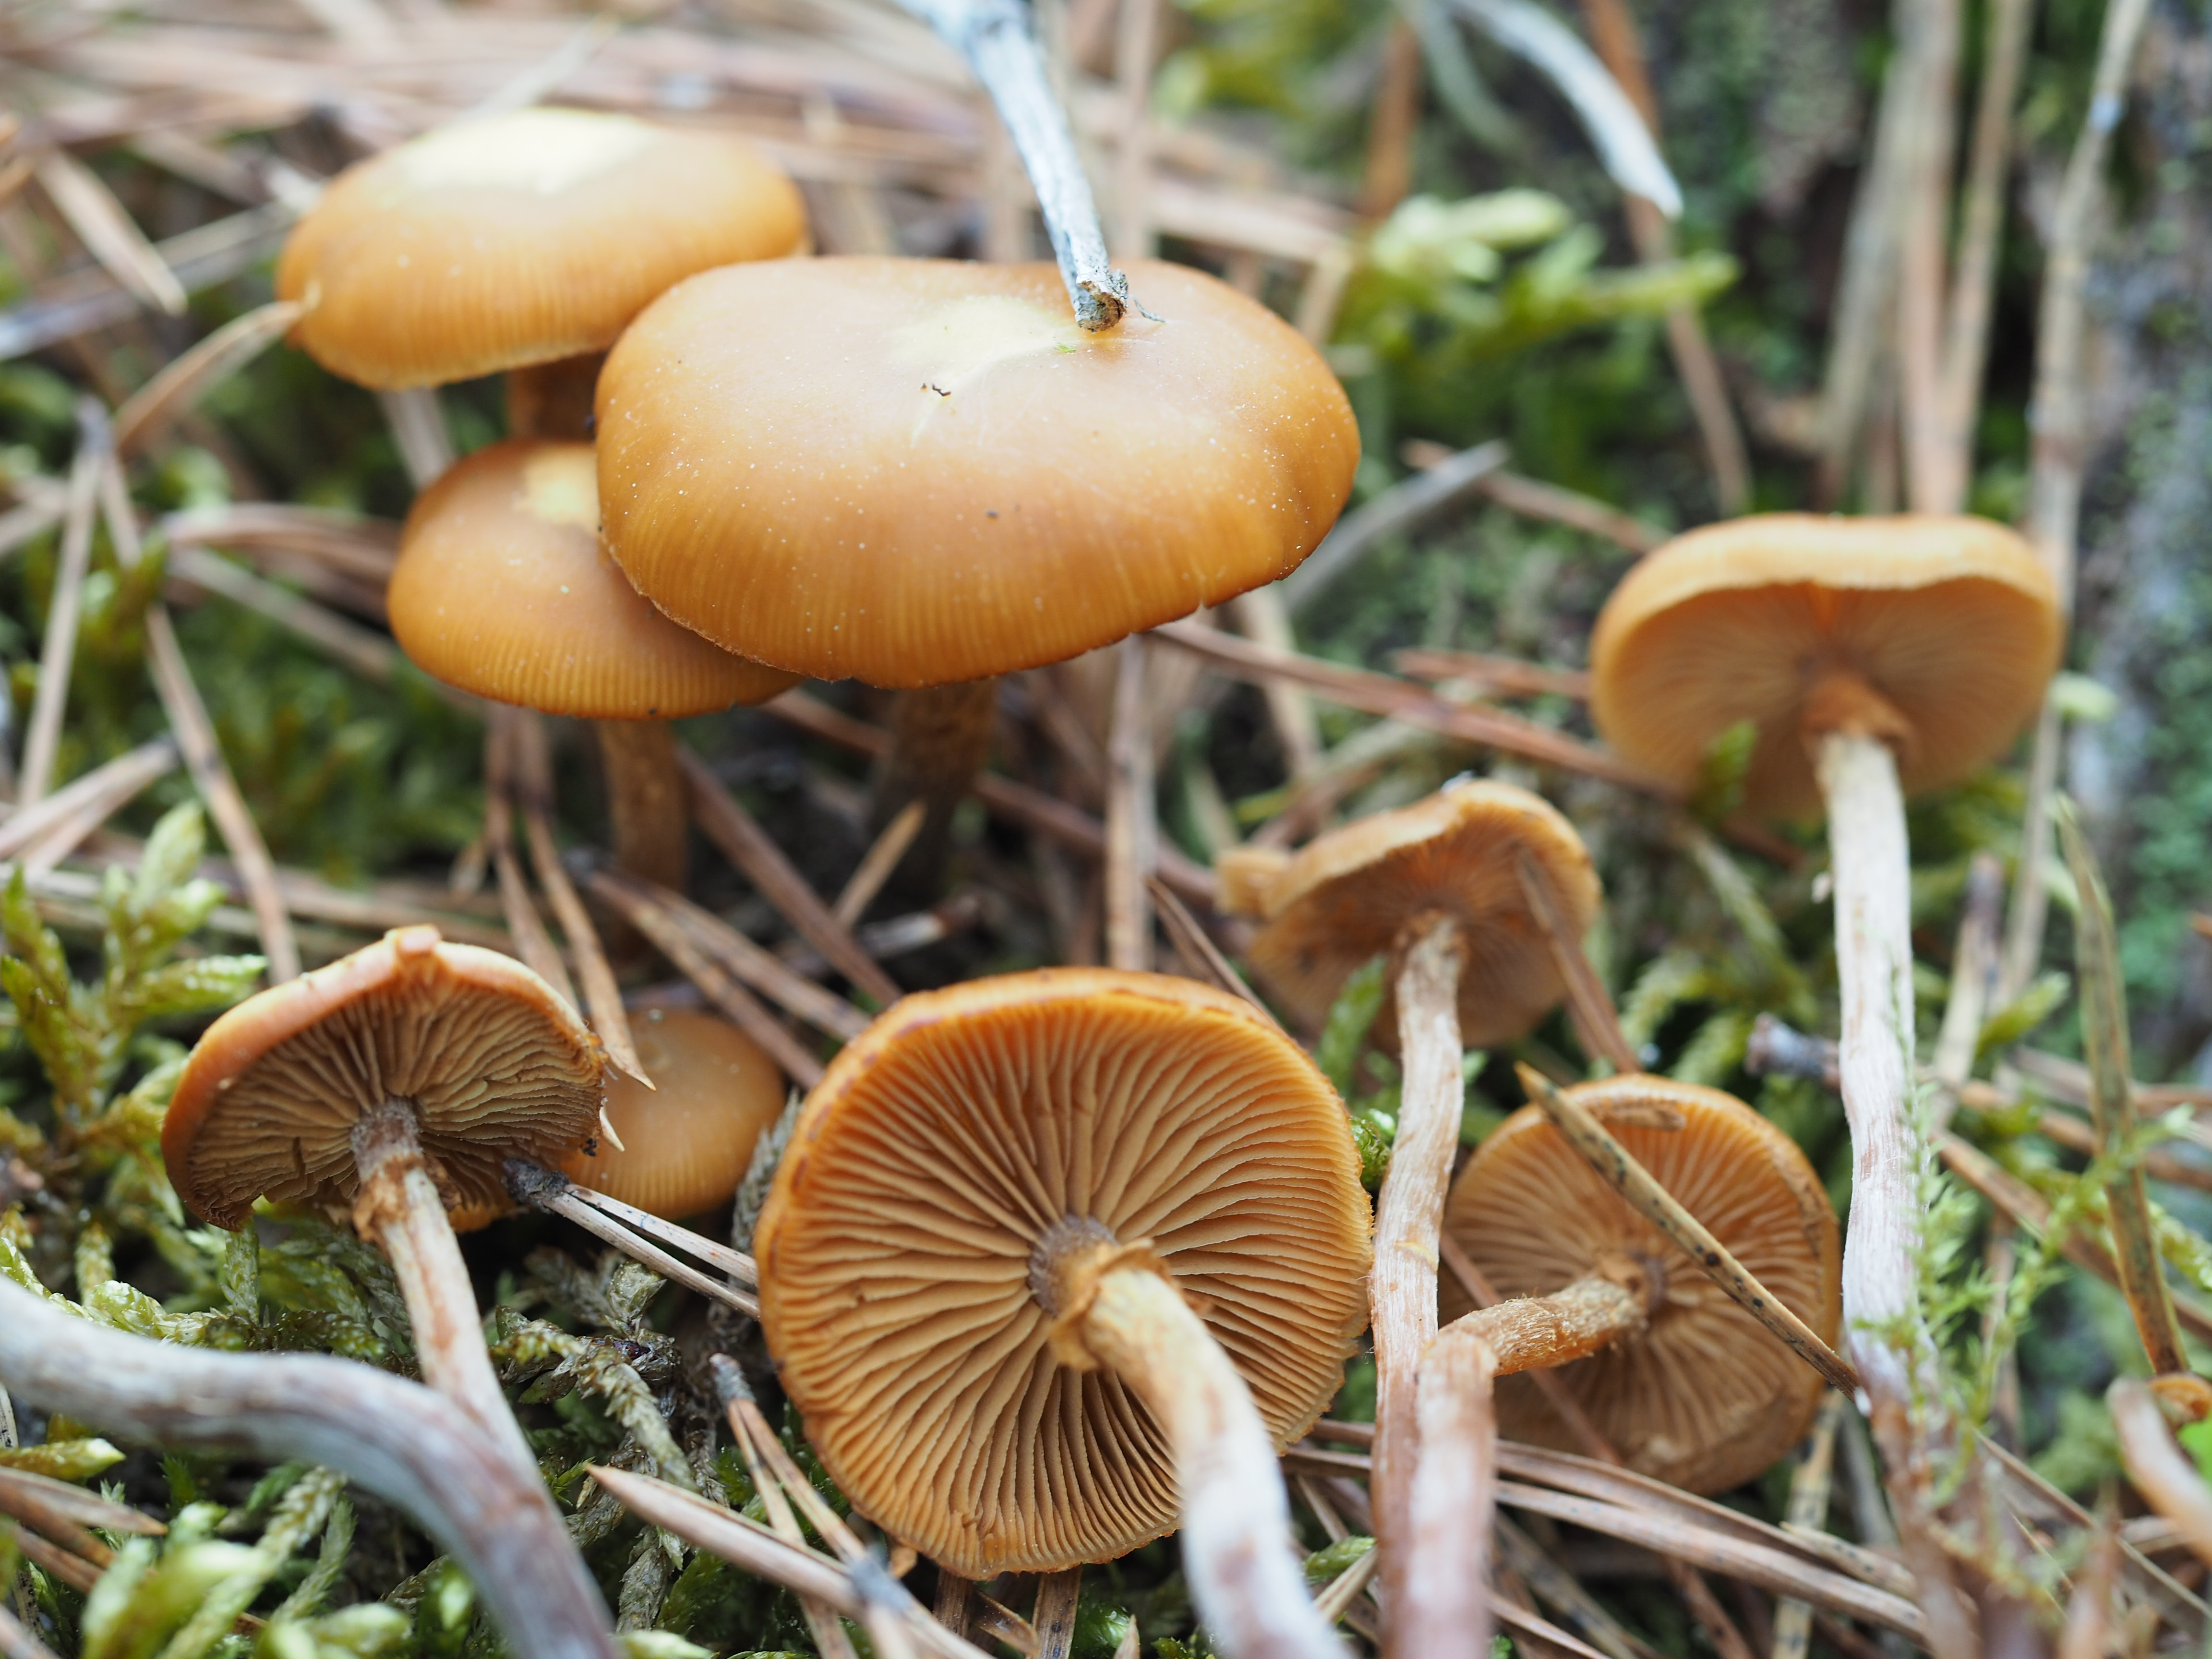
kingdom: Fungi
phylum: Basidiomycota
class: Agaricomycetes
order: Agaricales
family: Strophariaceae
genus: Pholiota
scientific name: Pholiota lignicola
